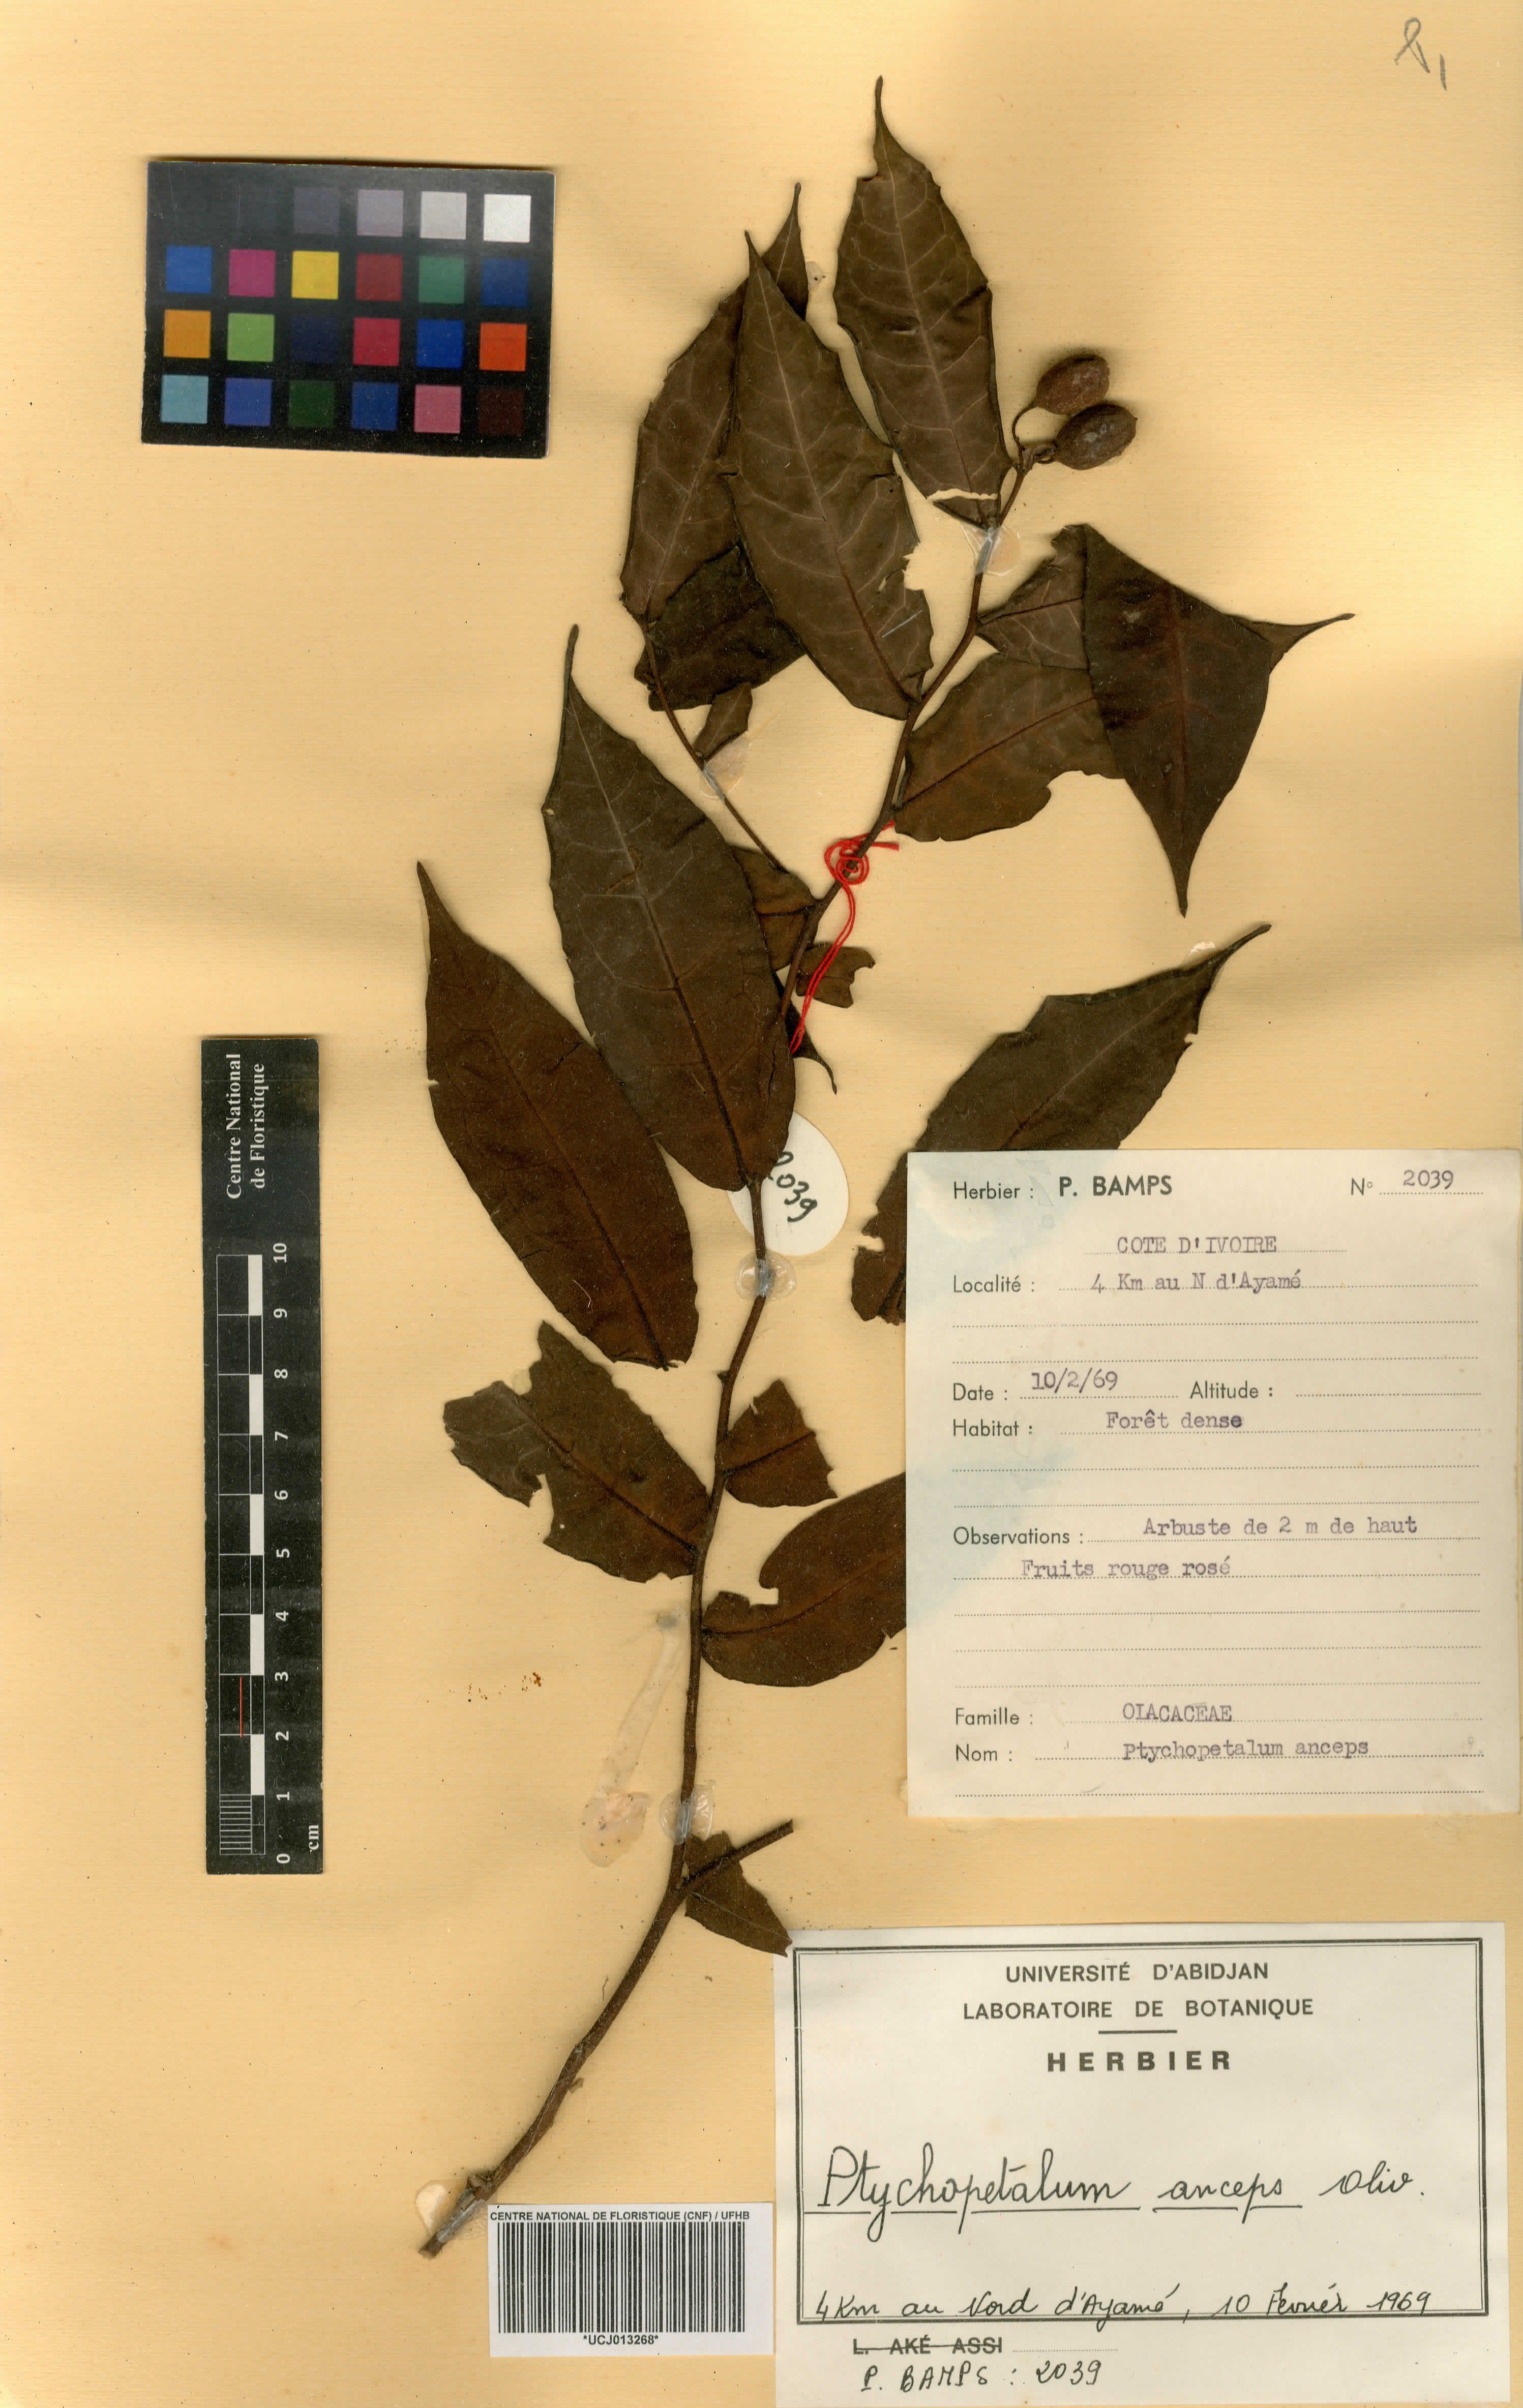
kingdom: Plantae
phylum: Tracheophyta
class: Magnoliopsida
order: Santalales
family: Olacaceae
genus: Ptychopetalum
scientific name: Ptychopetalum anceps
